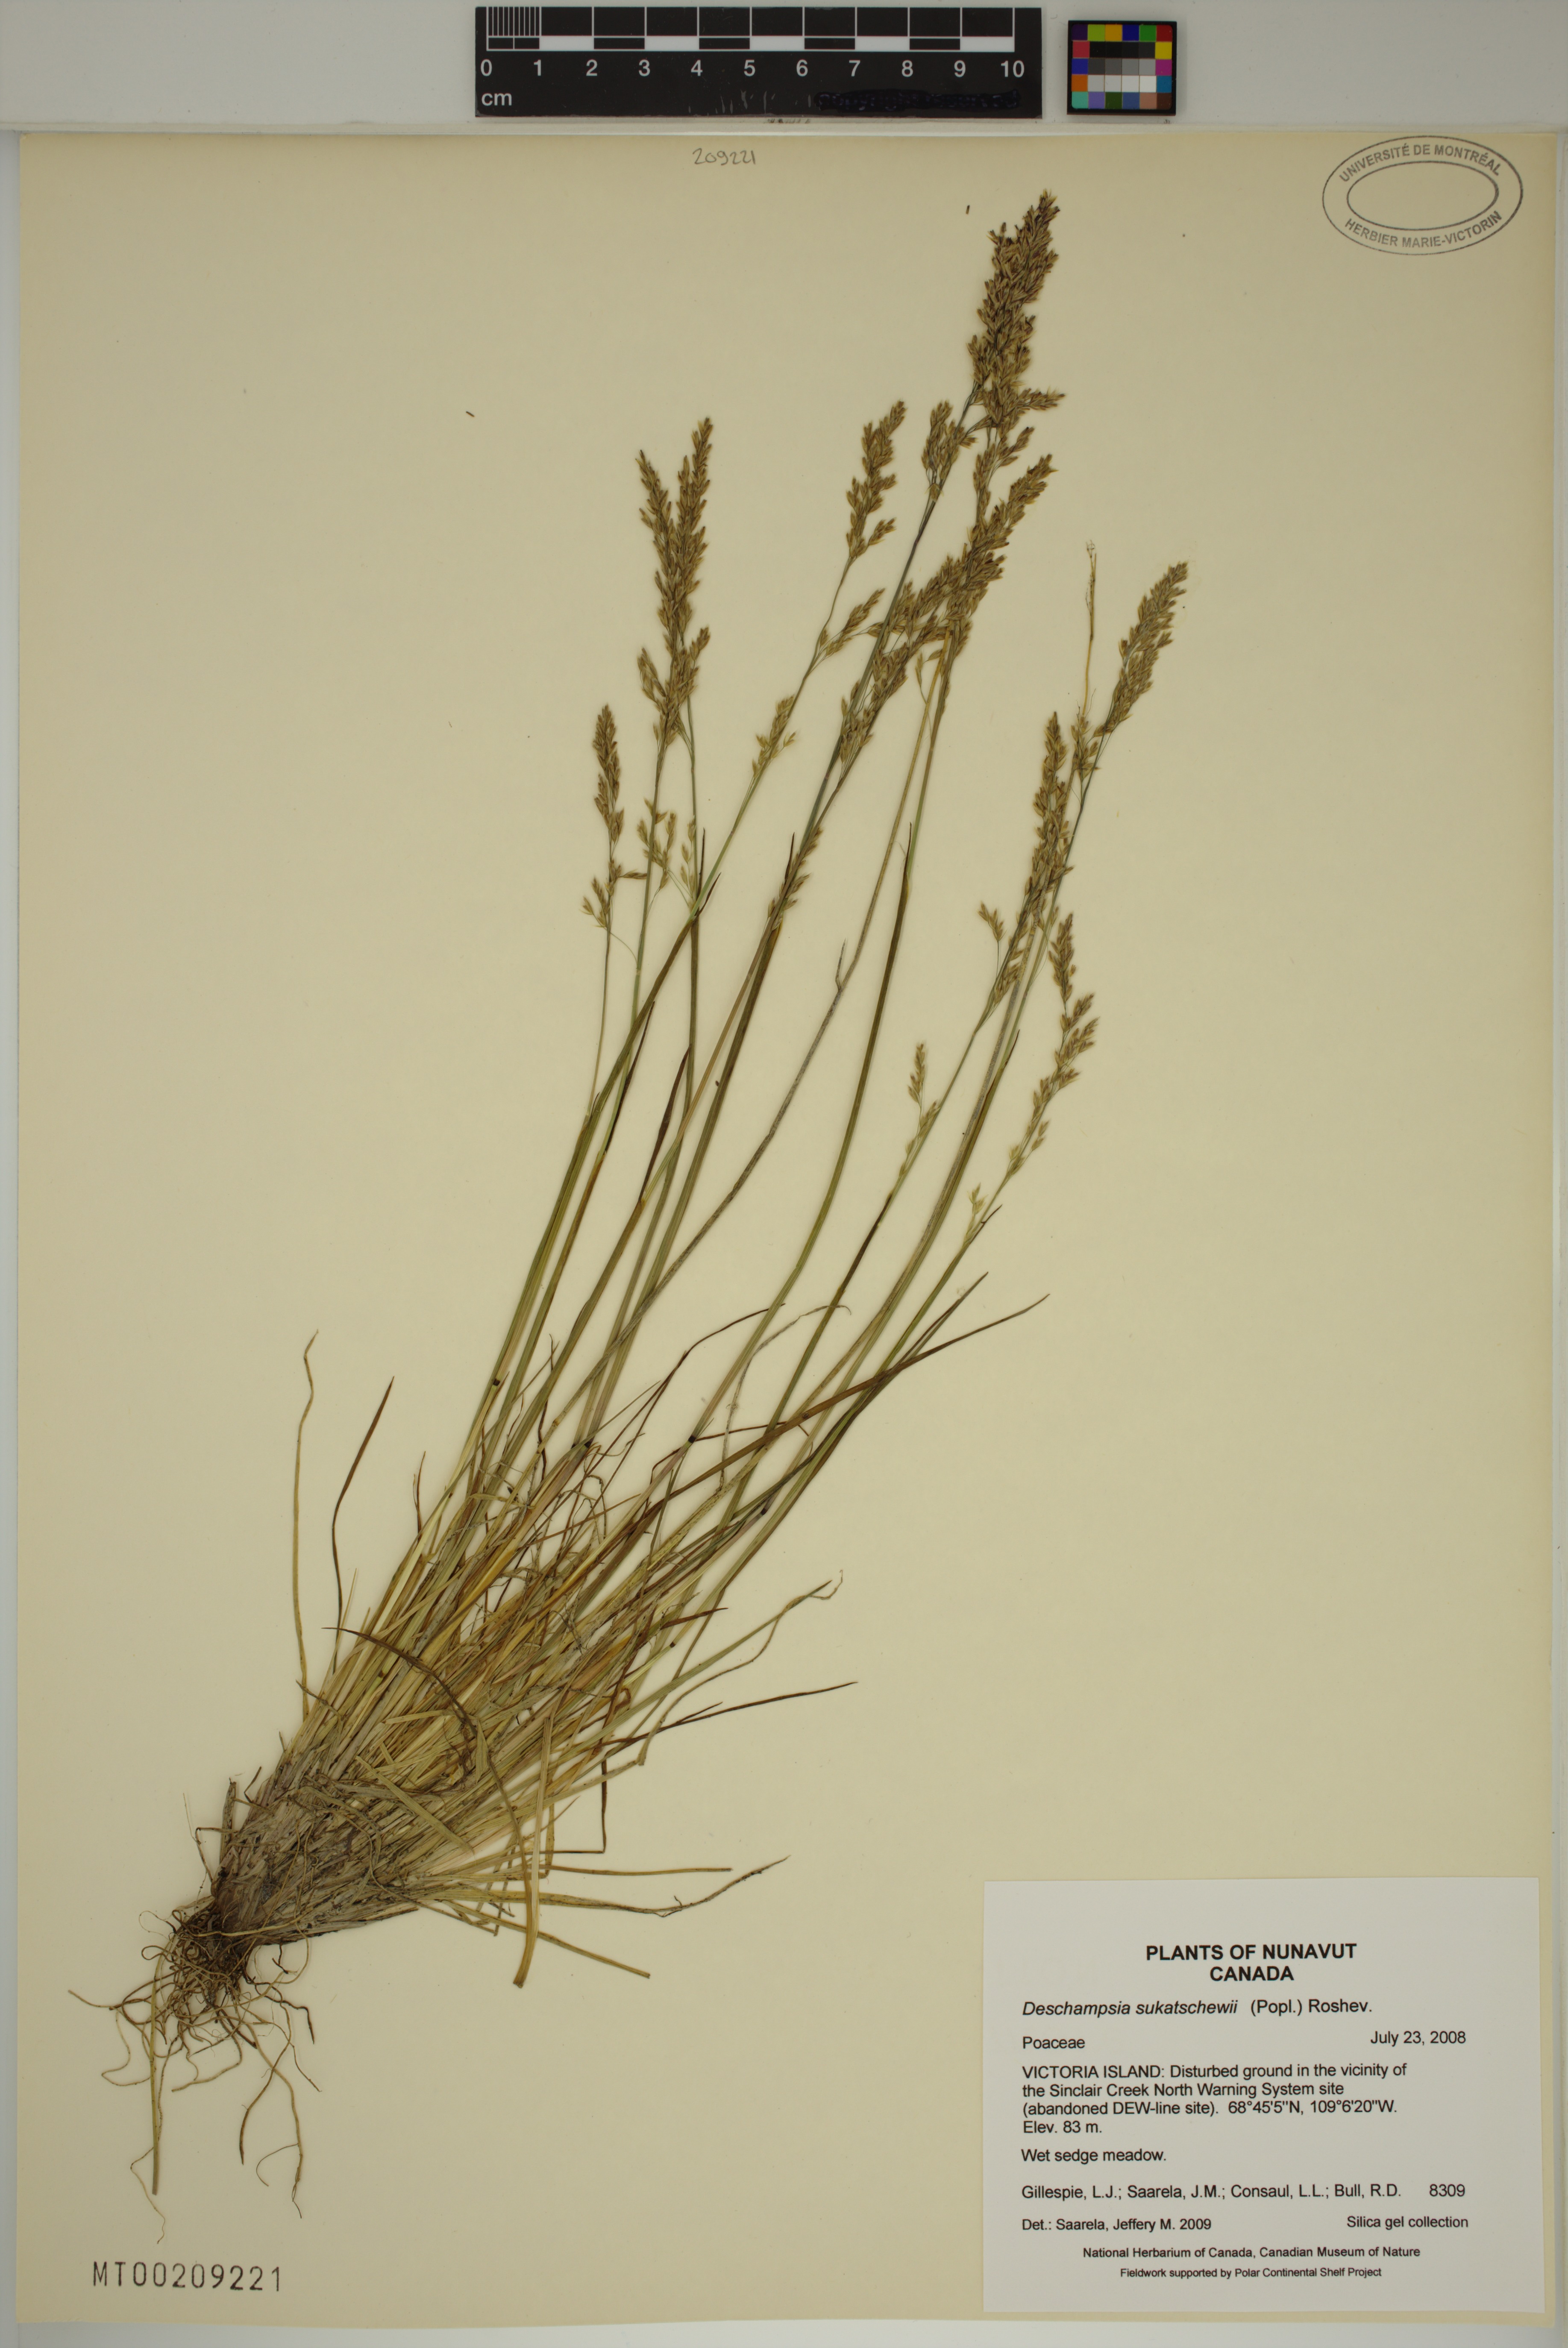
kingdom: Plantae
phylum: Tracheophyta
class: Liliopsida
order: Poales
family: Poaceae
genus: Deschampsia
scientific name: Deschampsia cespitosa
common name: Tufted hair-grass
